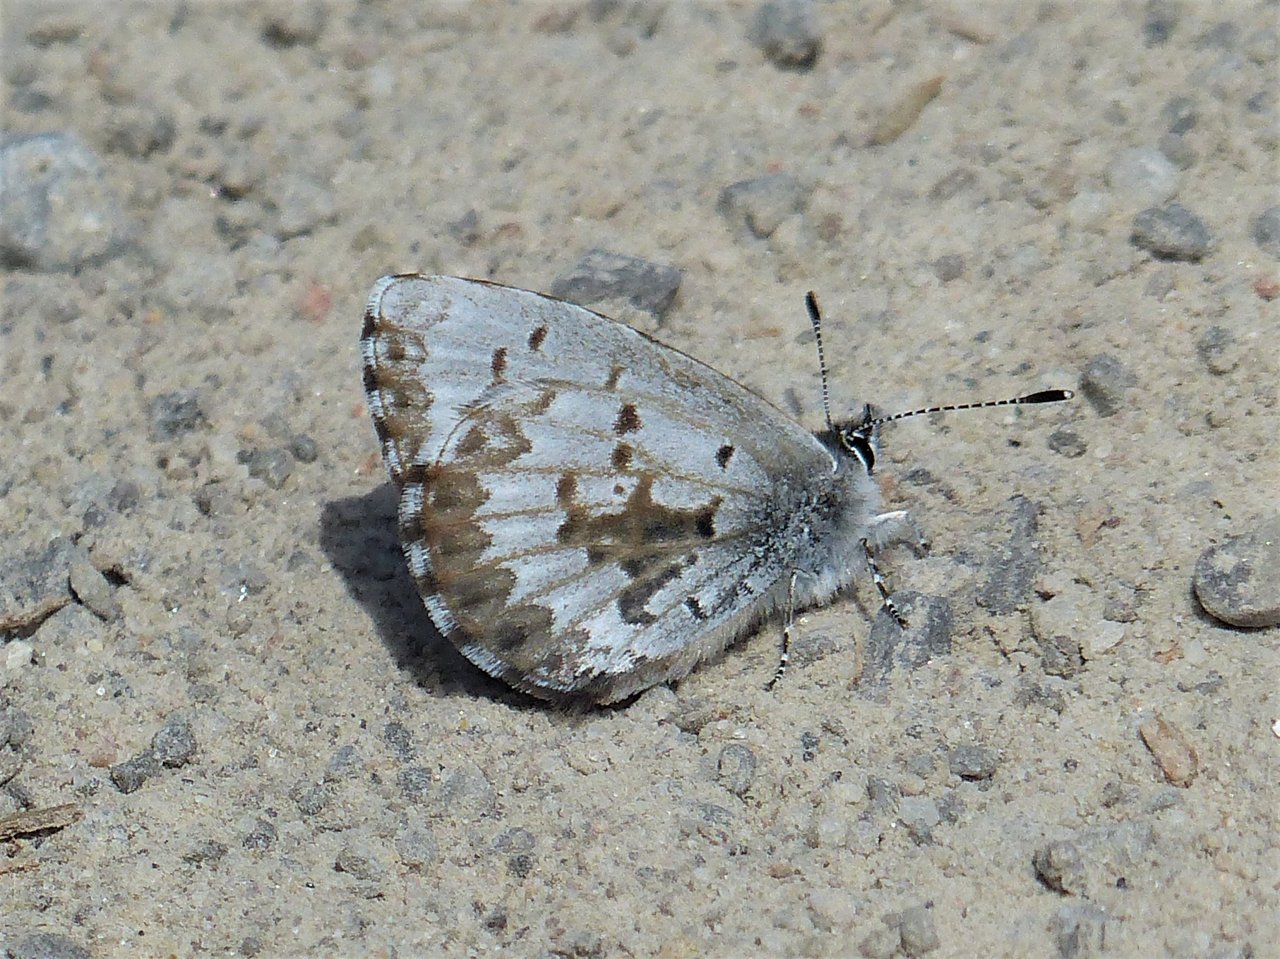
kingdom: Animalia
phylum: Arthropoda
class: Insecta
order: Lepidoptera
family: Lycaenidae
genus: Celastrina
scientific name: Celastrina lucia
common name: Northern Spring Azure
